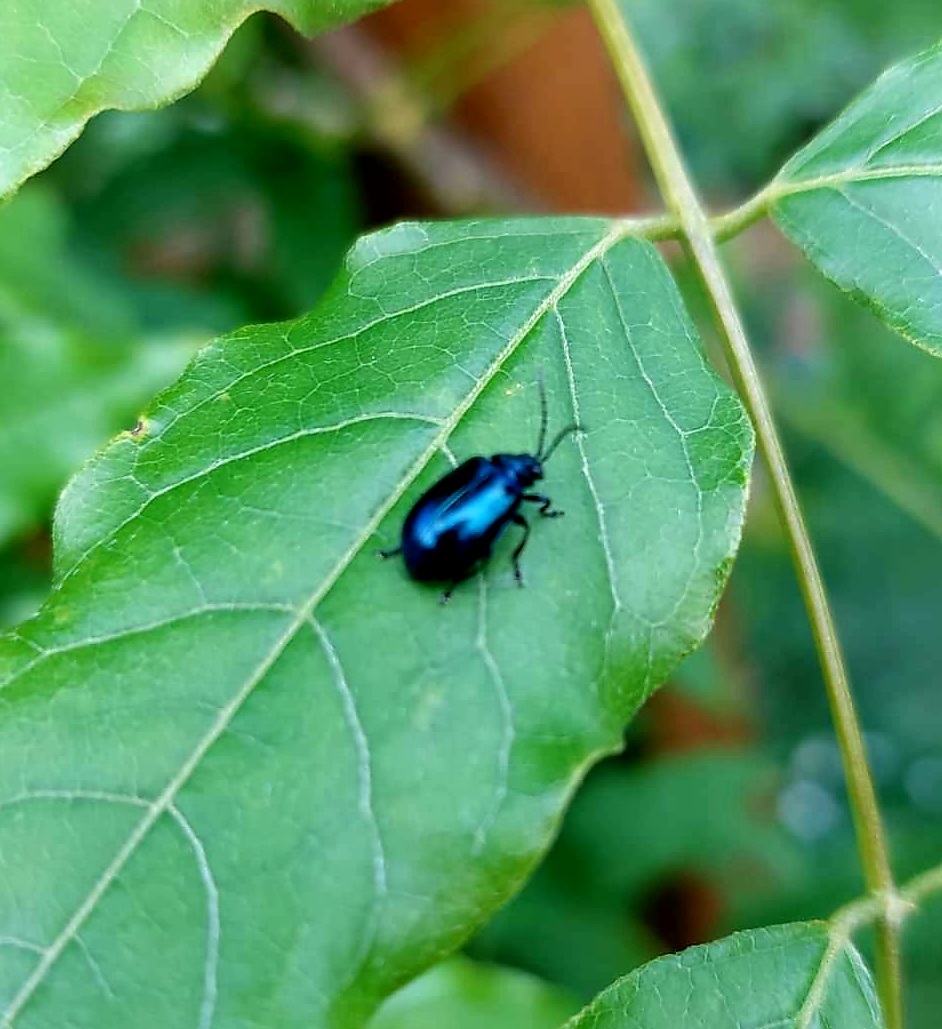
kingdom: Animalia
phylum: Arthropoda
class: Insecta
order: Coleoptera
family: Chrysomelidae
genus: Agelastica
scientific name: Agelastica alni
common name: Ellebladbille
